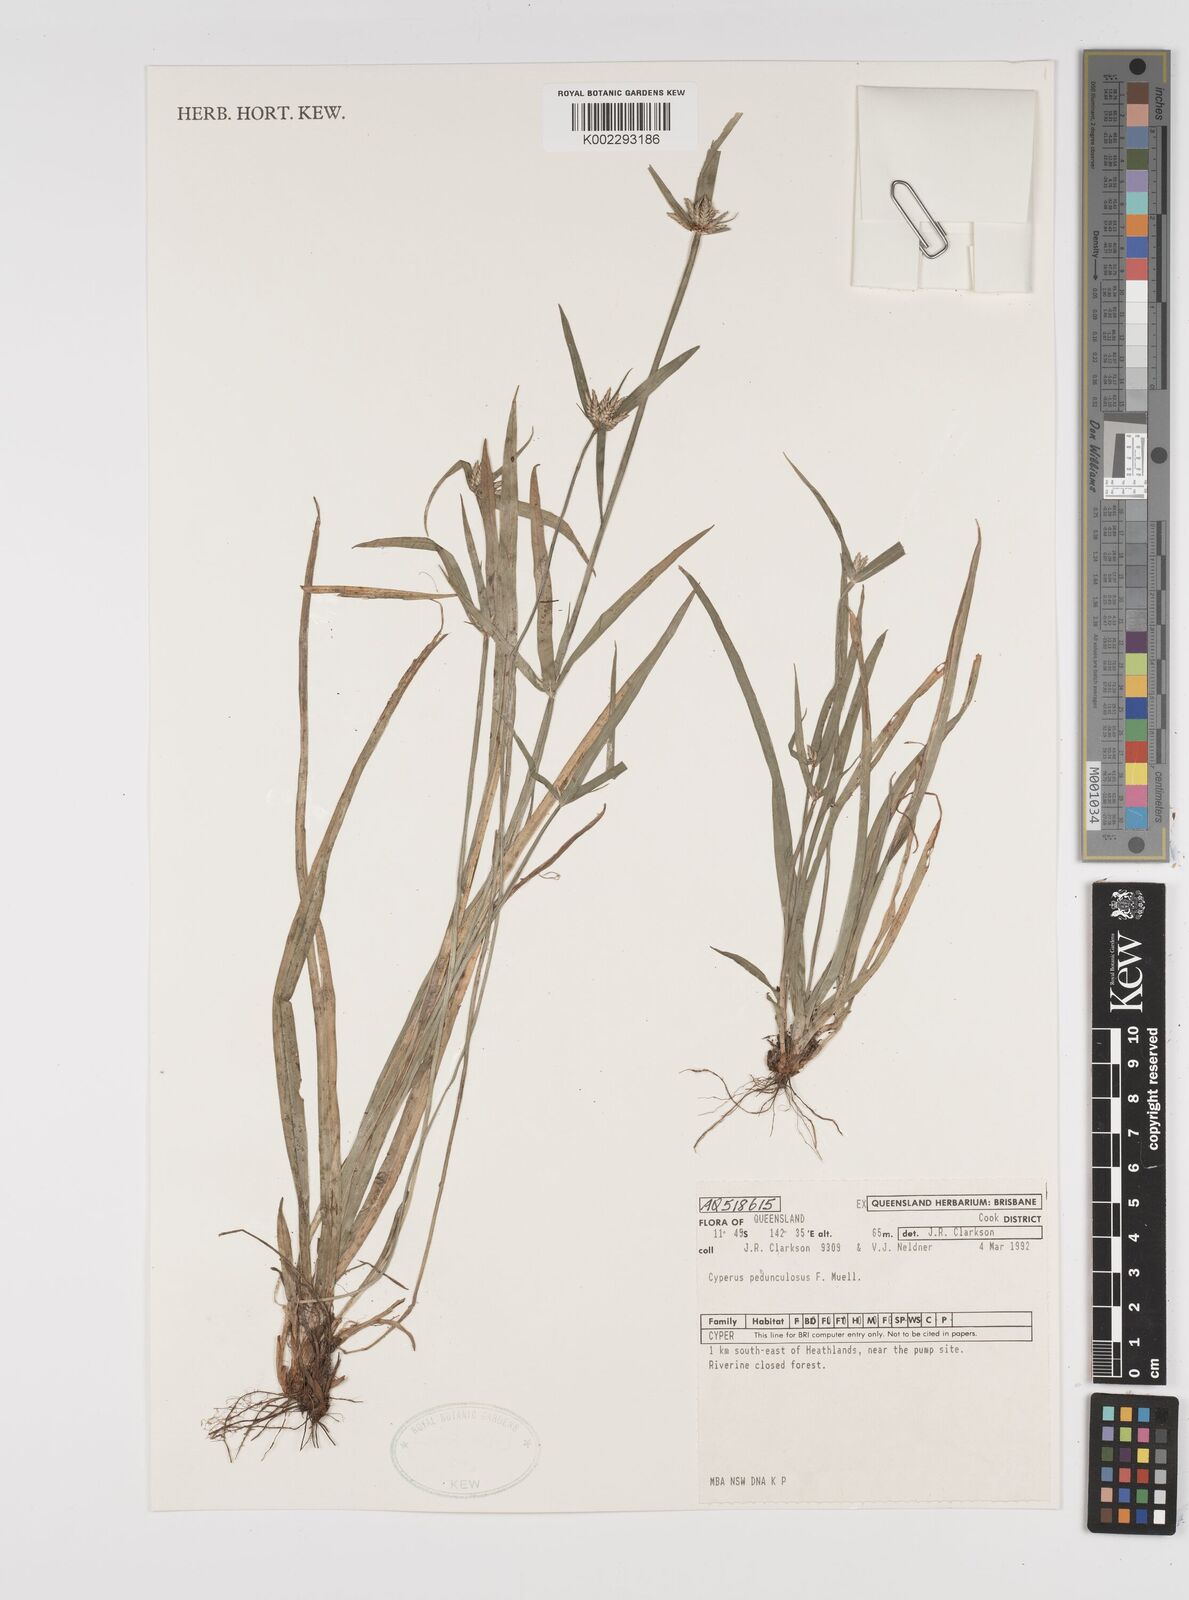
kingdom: Plantae
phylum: Tracheophyta
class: Liliopsida
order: Poales
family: Cyperaceae
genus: Cyperus
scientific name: Cyperus pedunculosus
